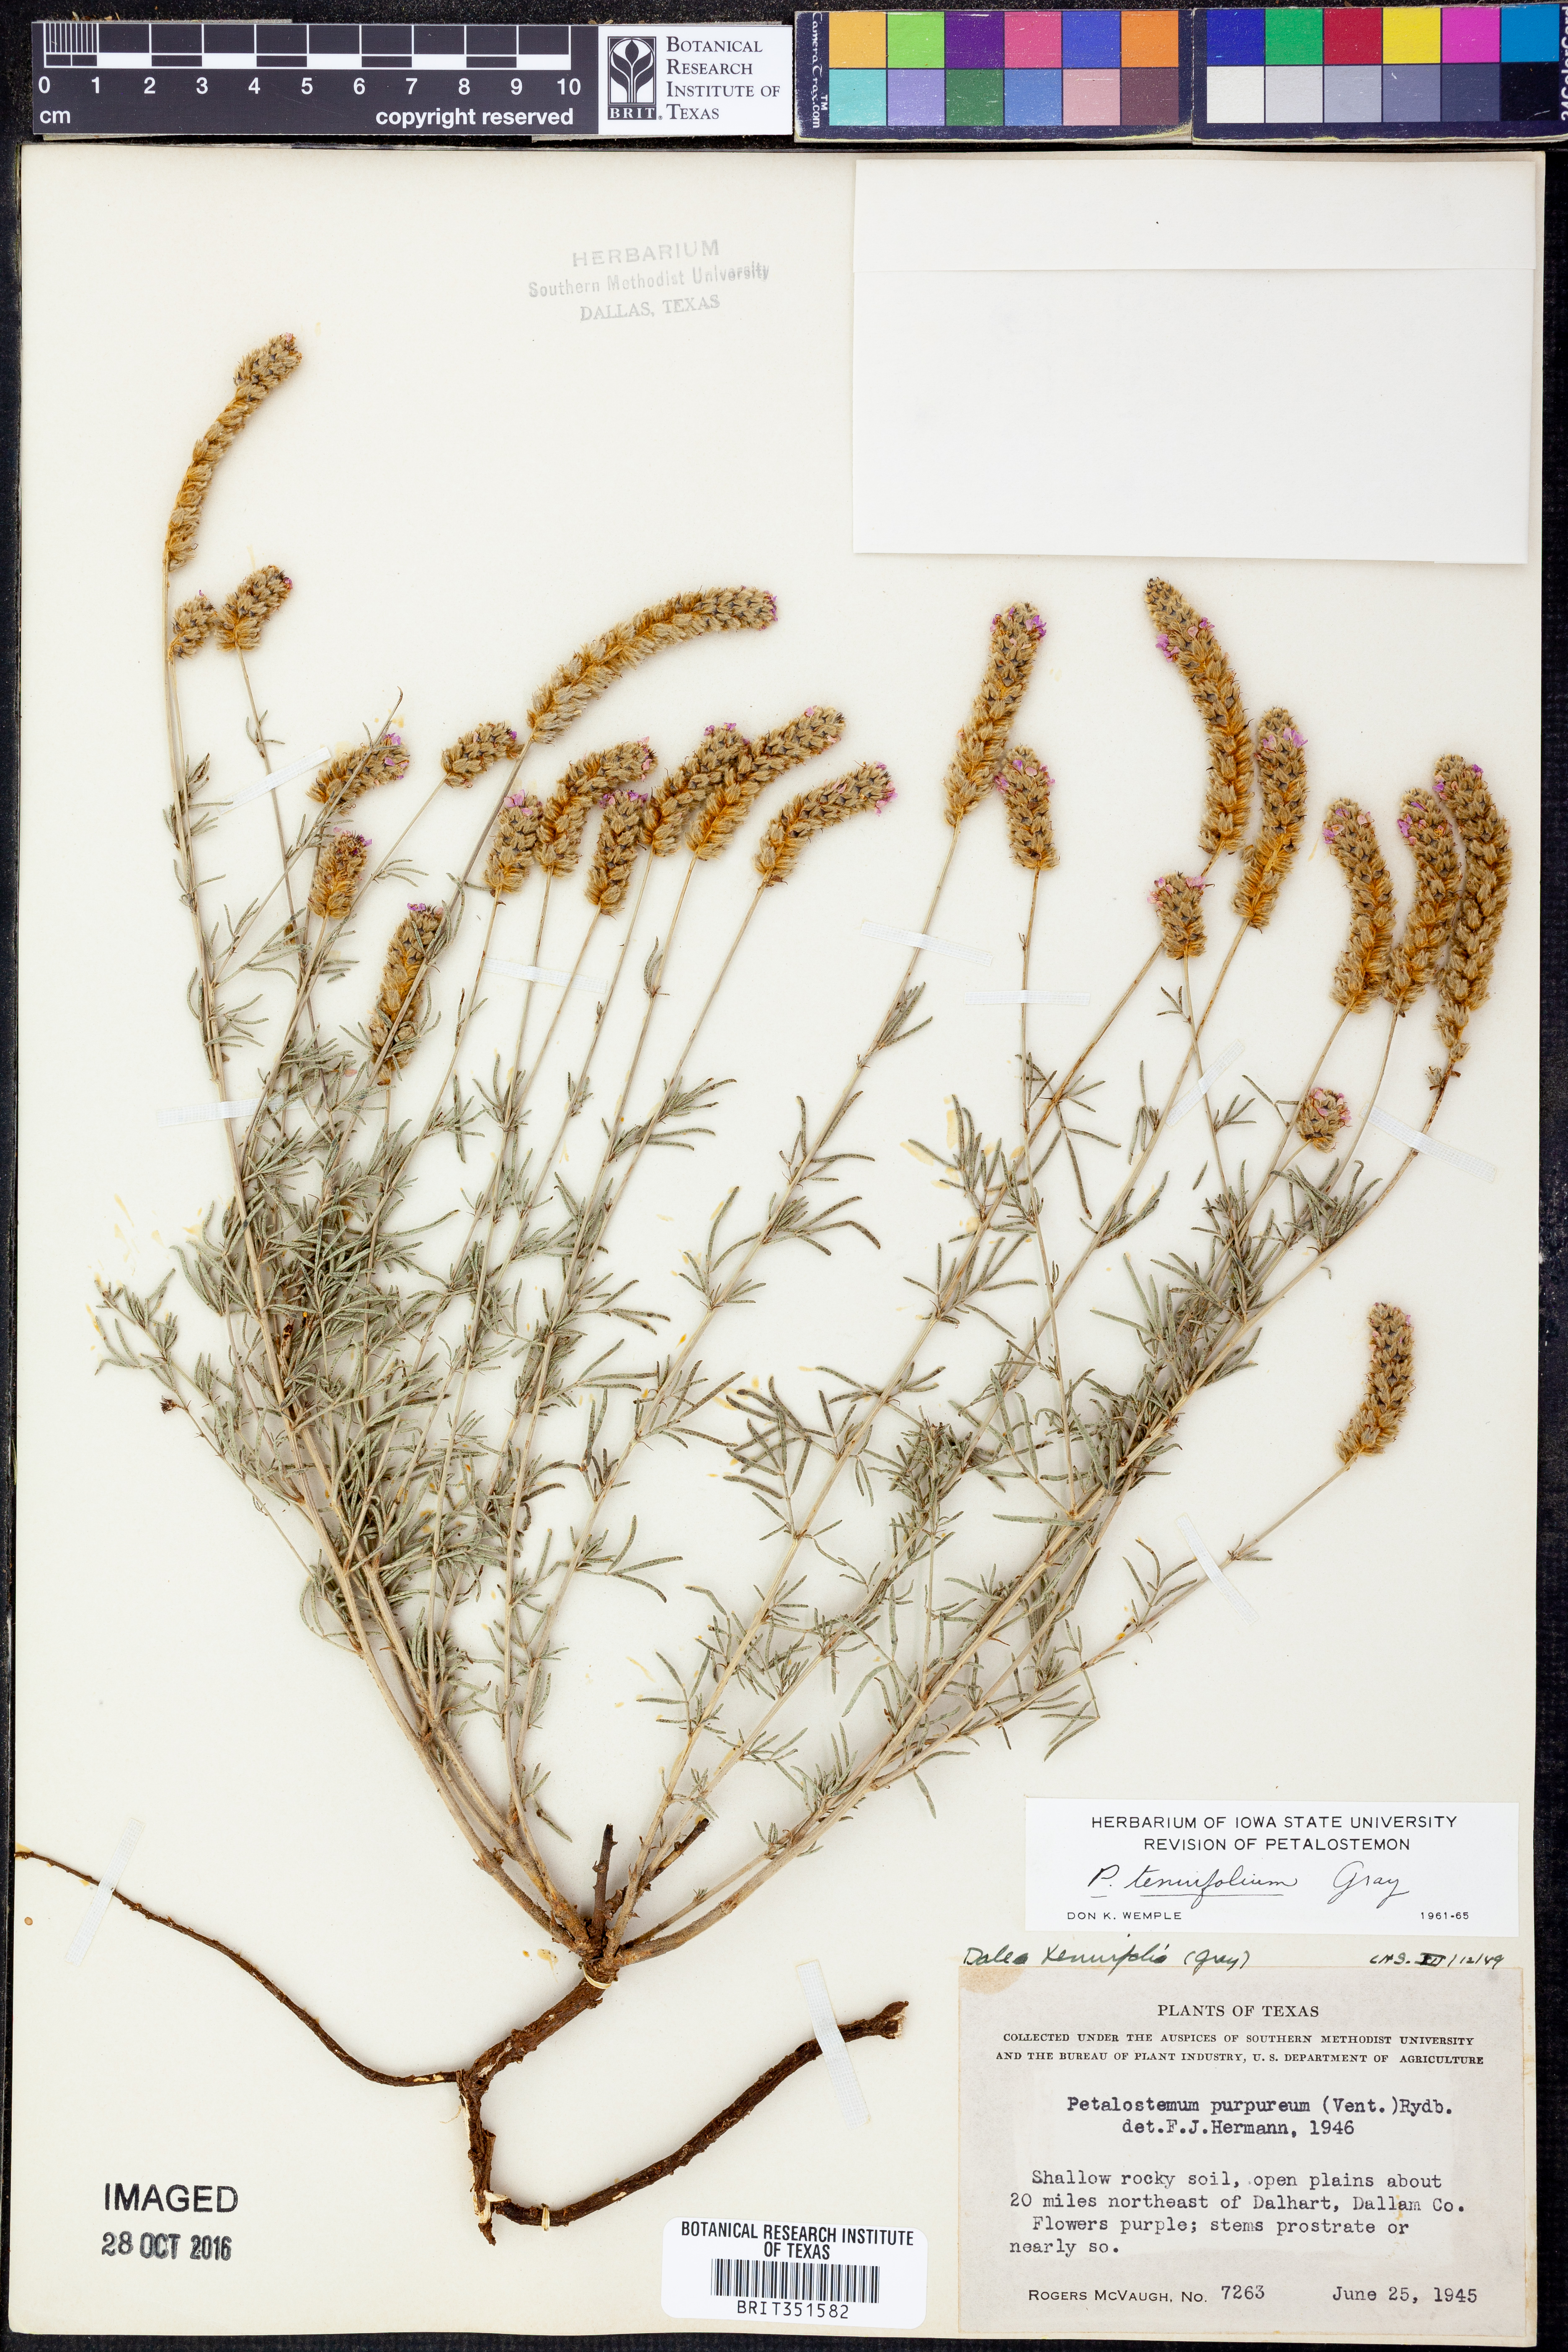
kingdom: Plantae
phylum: Tracheophyta
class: Magnoliopsida
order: Fabales
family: Fabaceae
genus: Dalea
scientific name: Dalea tenuifolia
